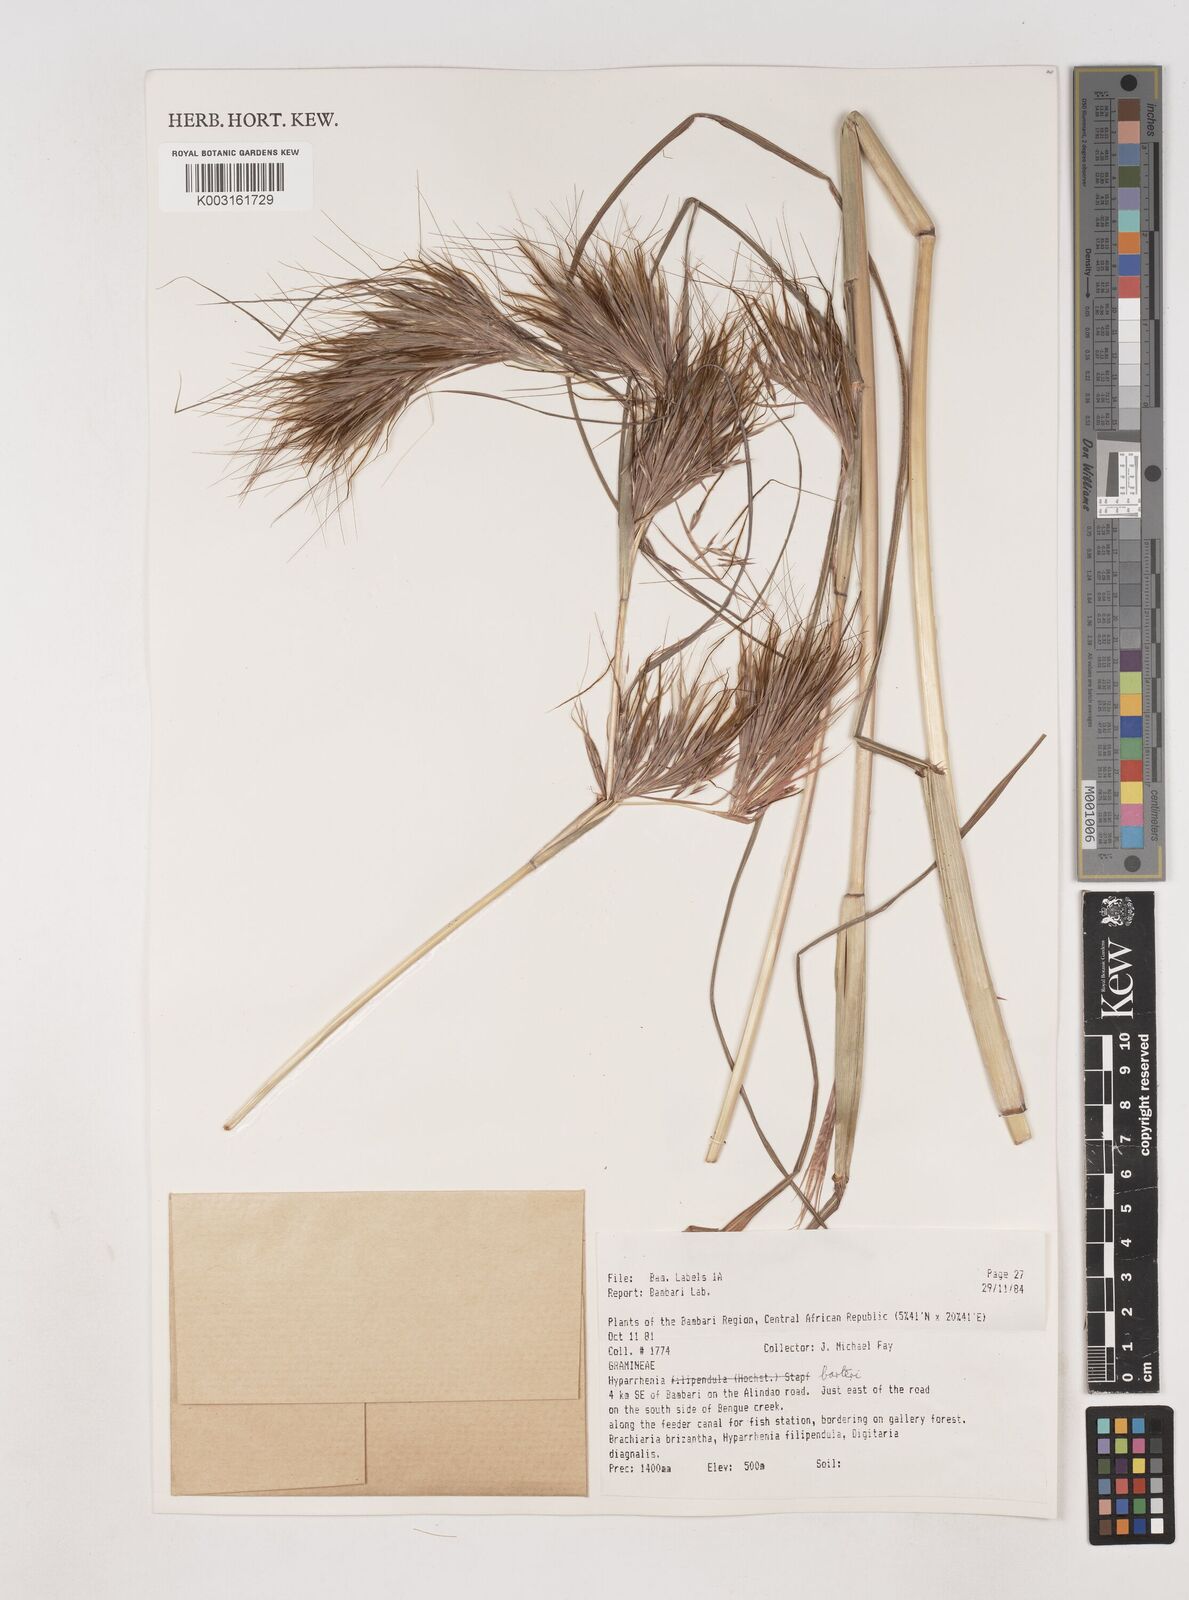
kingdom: Plantae
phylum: Tracheophyta
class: Liliopsida
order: Poales
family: Poaceae
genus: Hyparrhenia
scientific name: Hyparrhenia barteri
